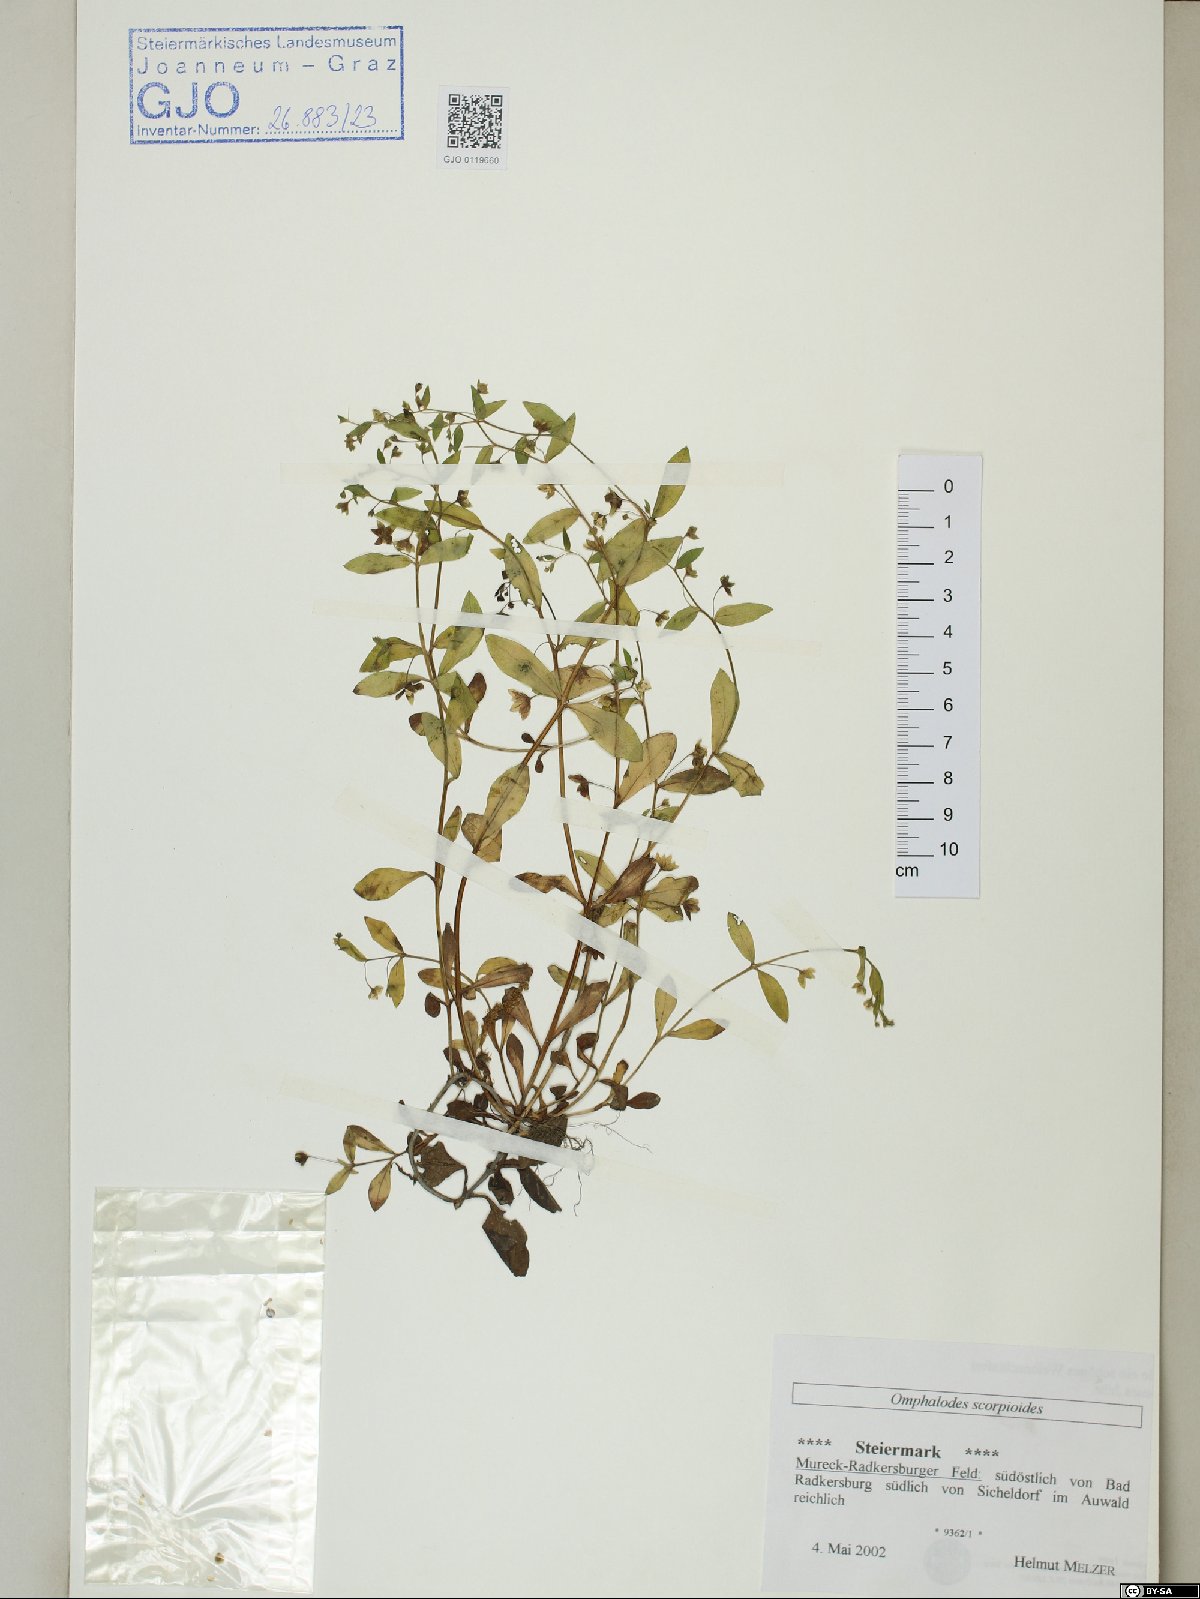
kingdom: Plantae
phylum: Tracheophyta
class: Magnoliopsida
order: Boraginales
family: Boraginaceae
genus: Memoremea
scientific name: Memoremea scorpioides
